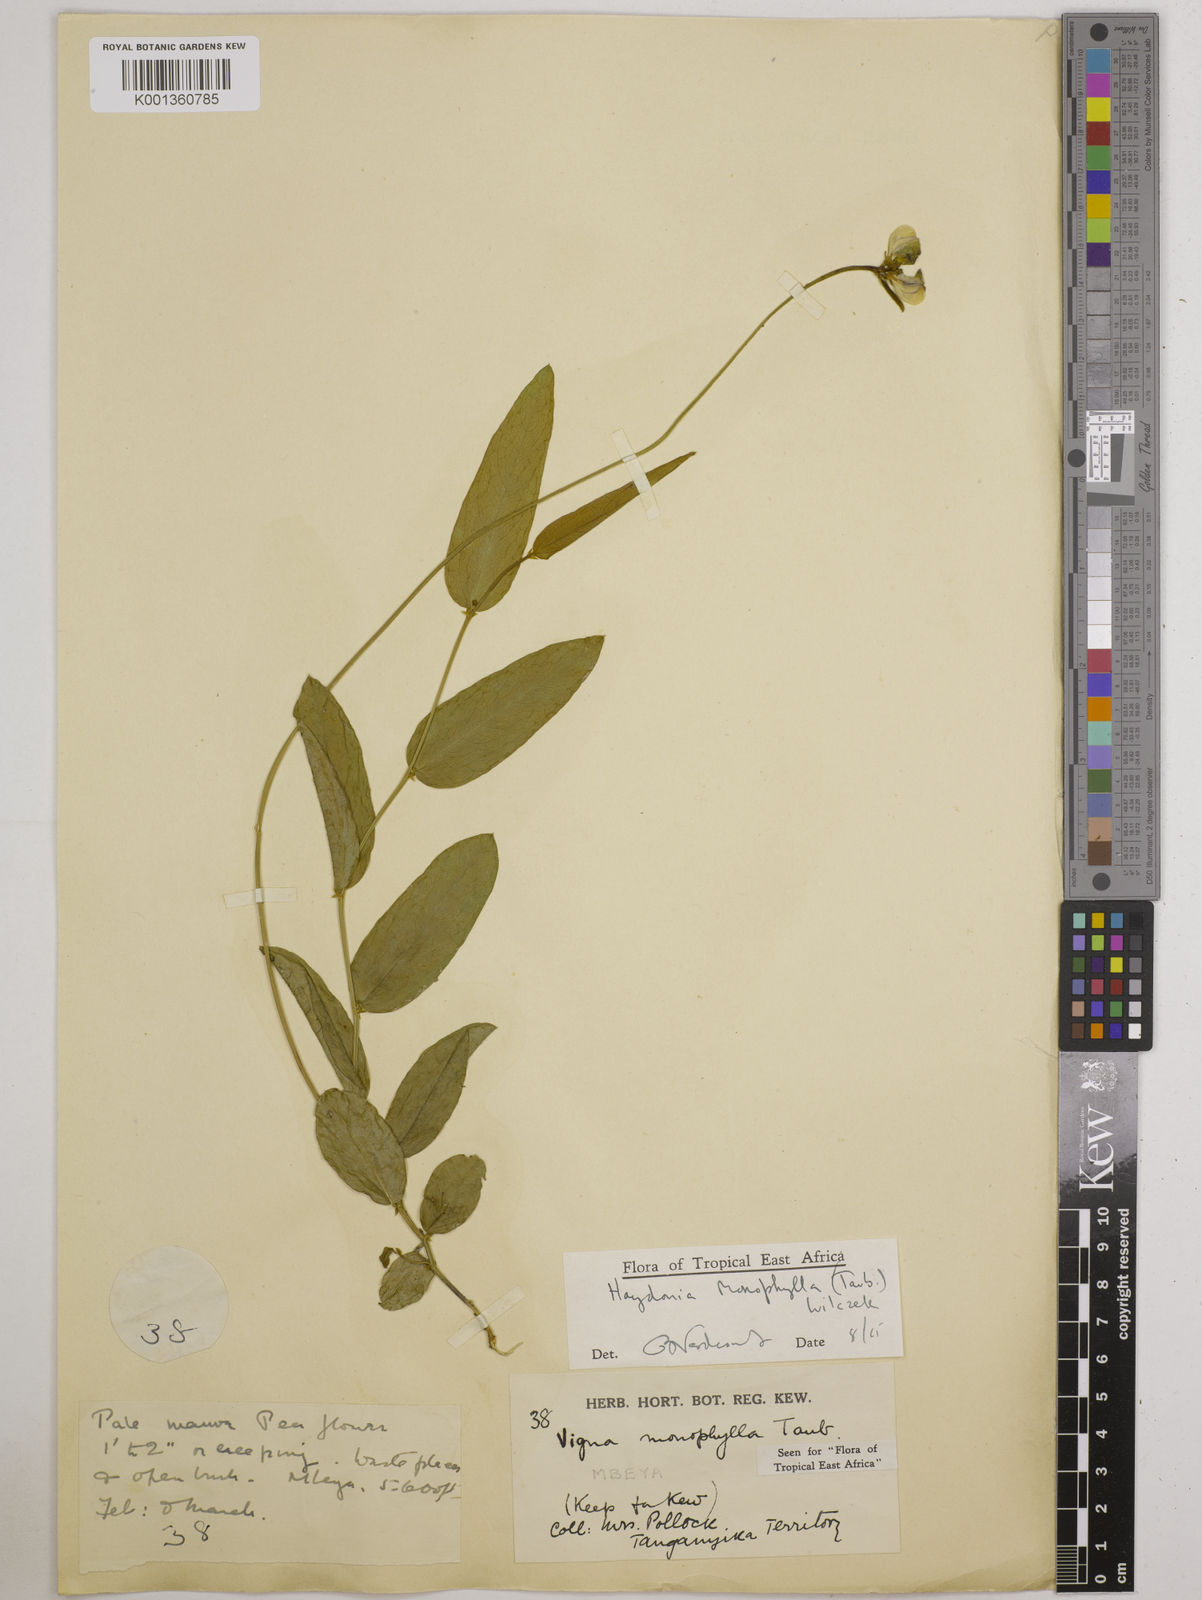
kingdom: Plantae
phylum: Tracheophyta
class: Magnoliopsida
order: Fabales
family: Fabaceae
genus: Vigna
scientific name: Vigna monophylla
